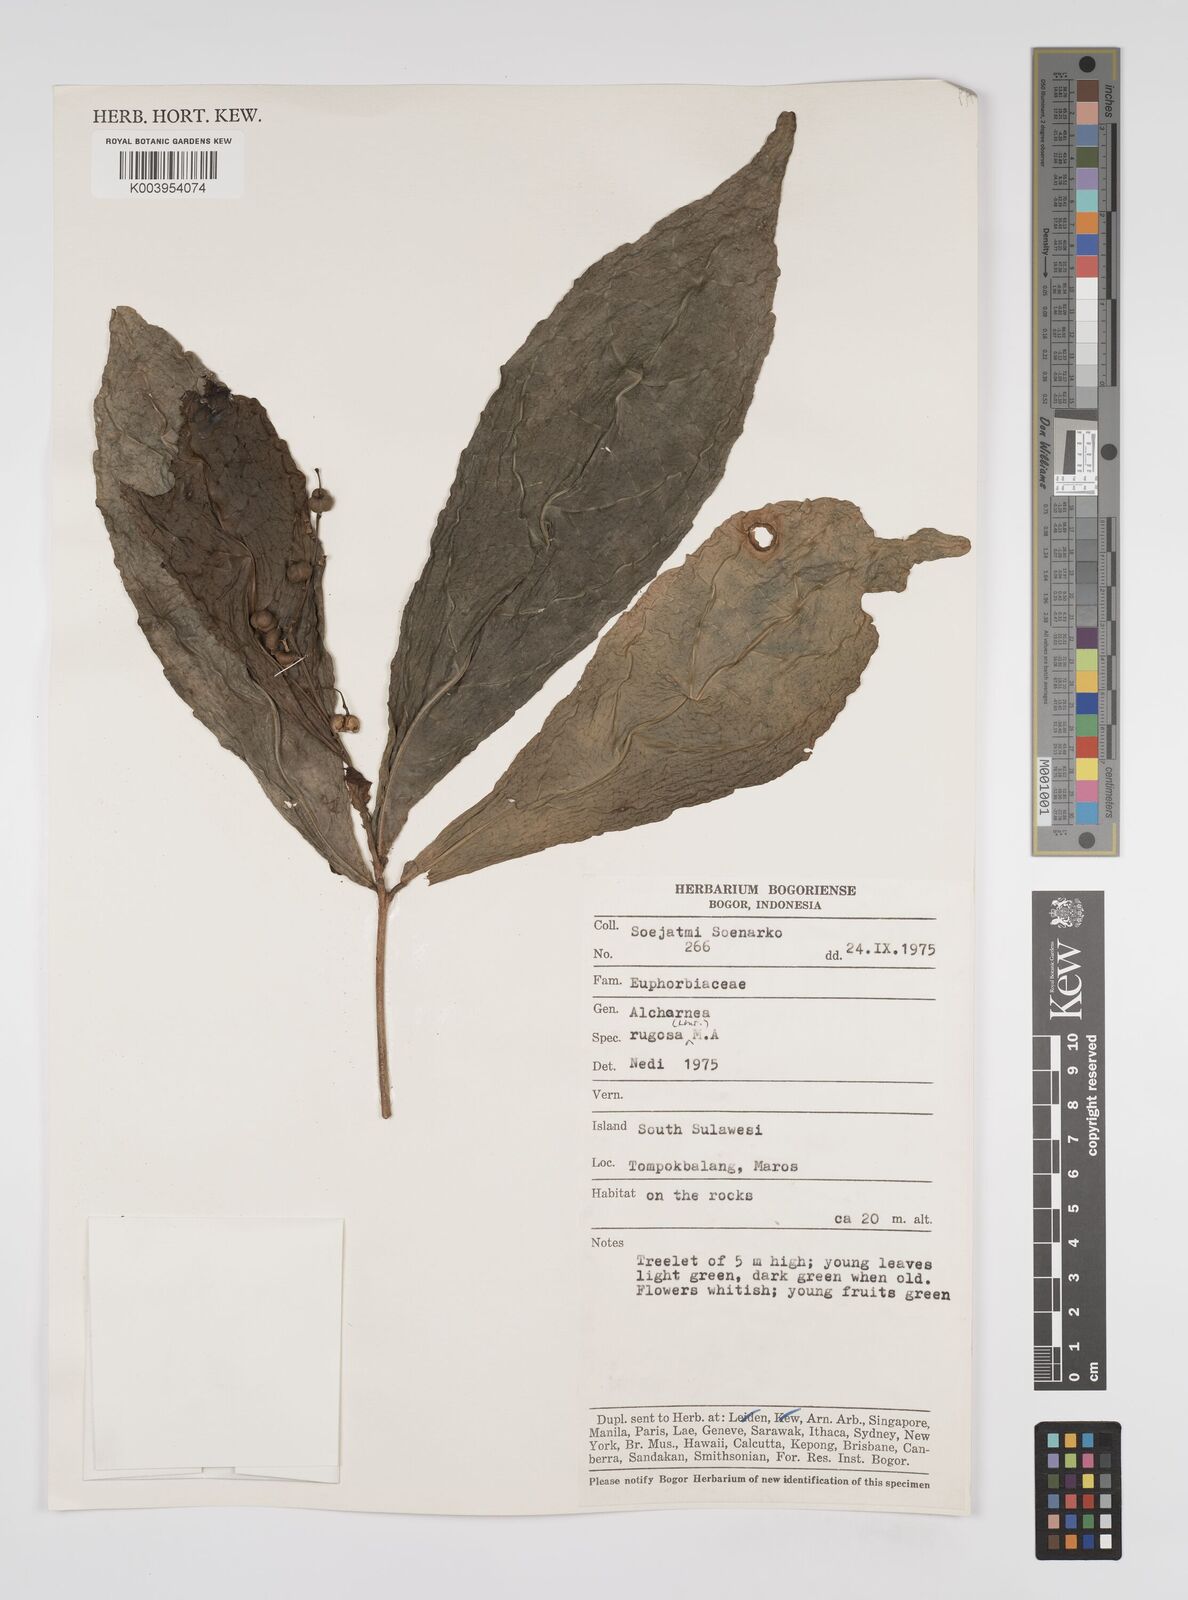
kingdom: Plantae
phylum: Tracheophyta
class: Magnoliopsida
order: Malpighiales
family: Euphorbiaceae
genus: Alchornea
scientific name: Alchornea rugosa
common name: Alchorntree
